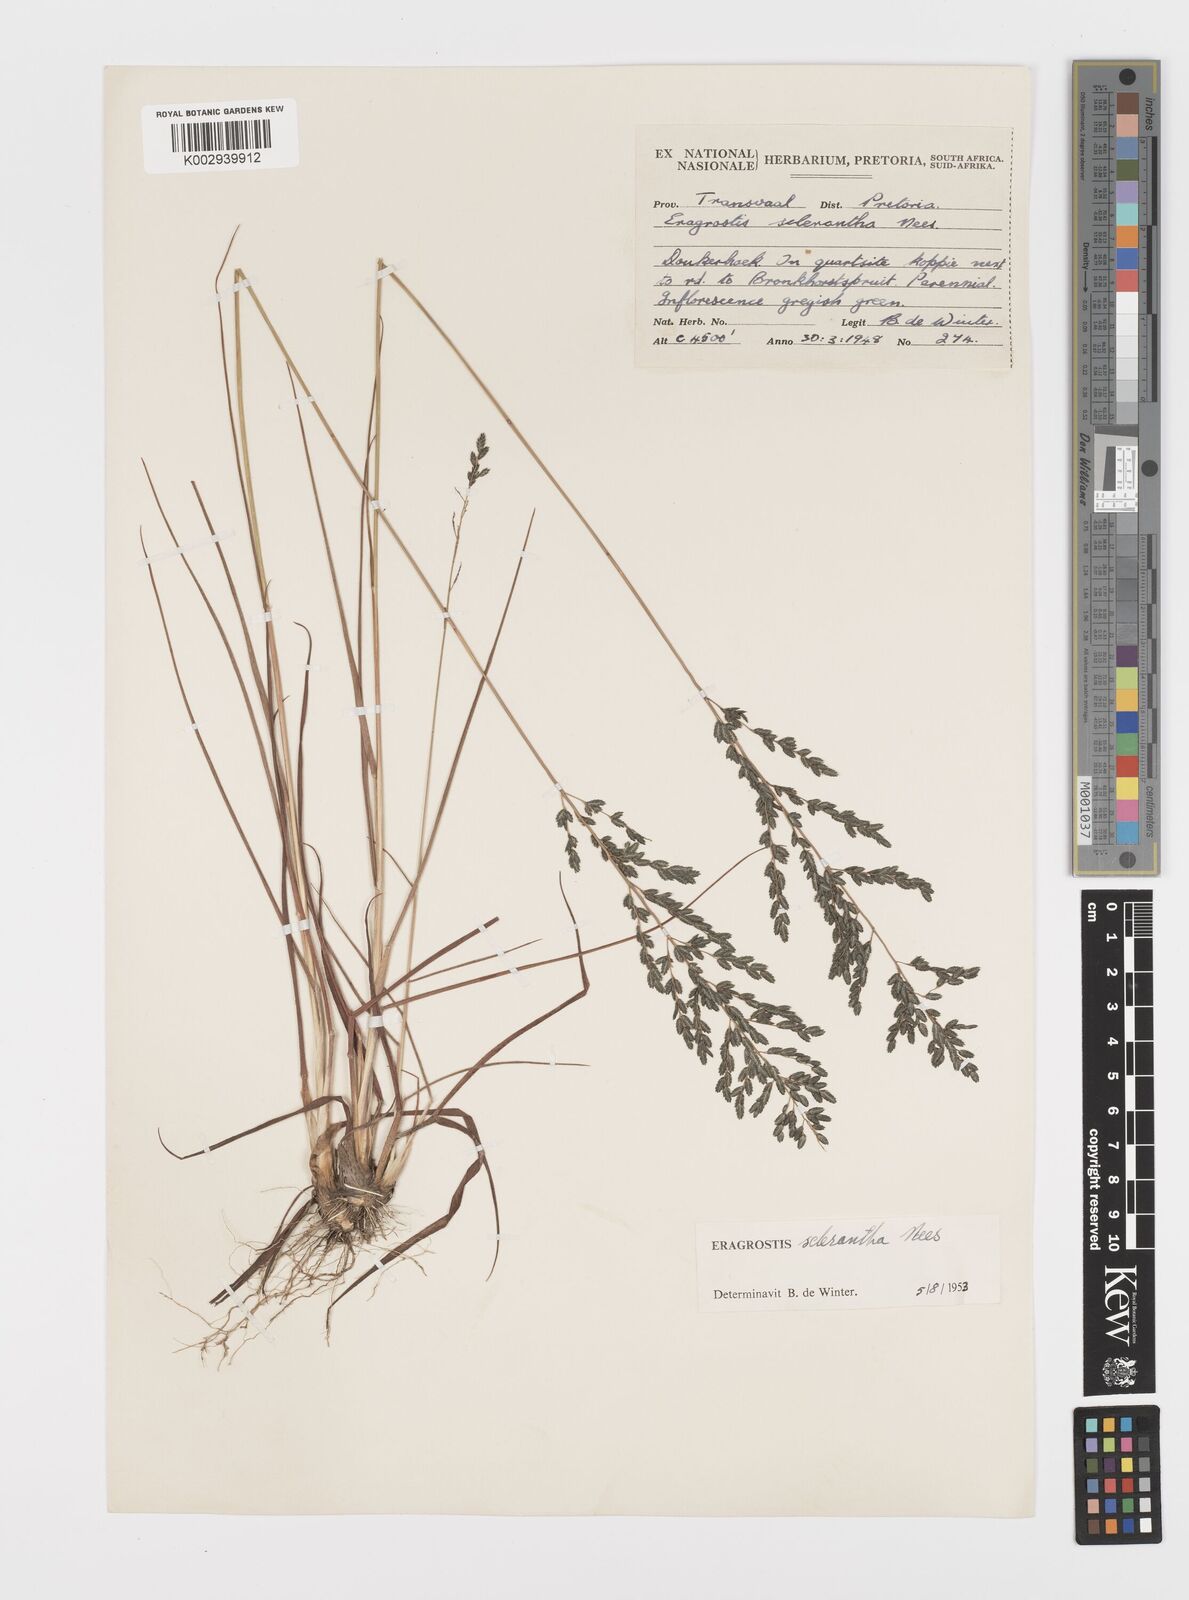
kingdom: Plantae
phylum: Tracheophyta
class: Liliopsida
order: Poales
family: Poaceae
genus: Eragrostis
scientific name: Eragrostis sclerantha
